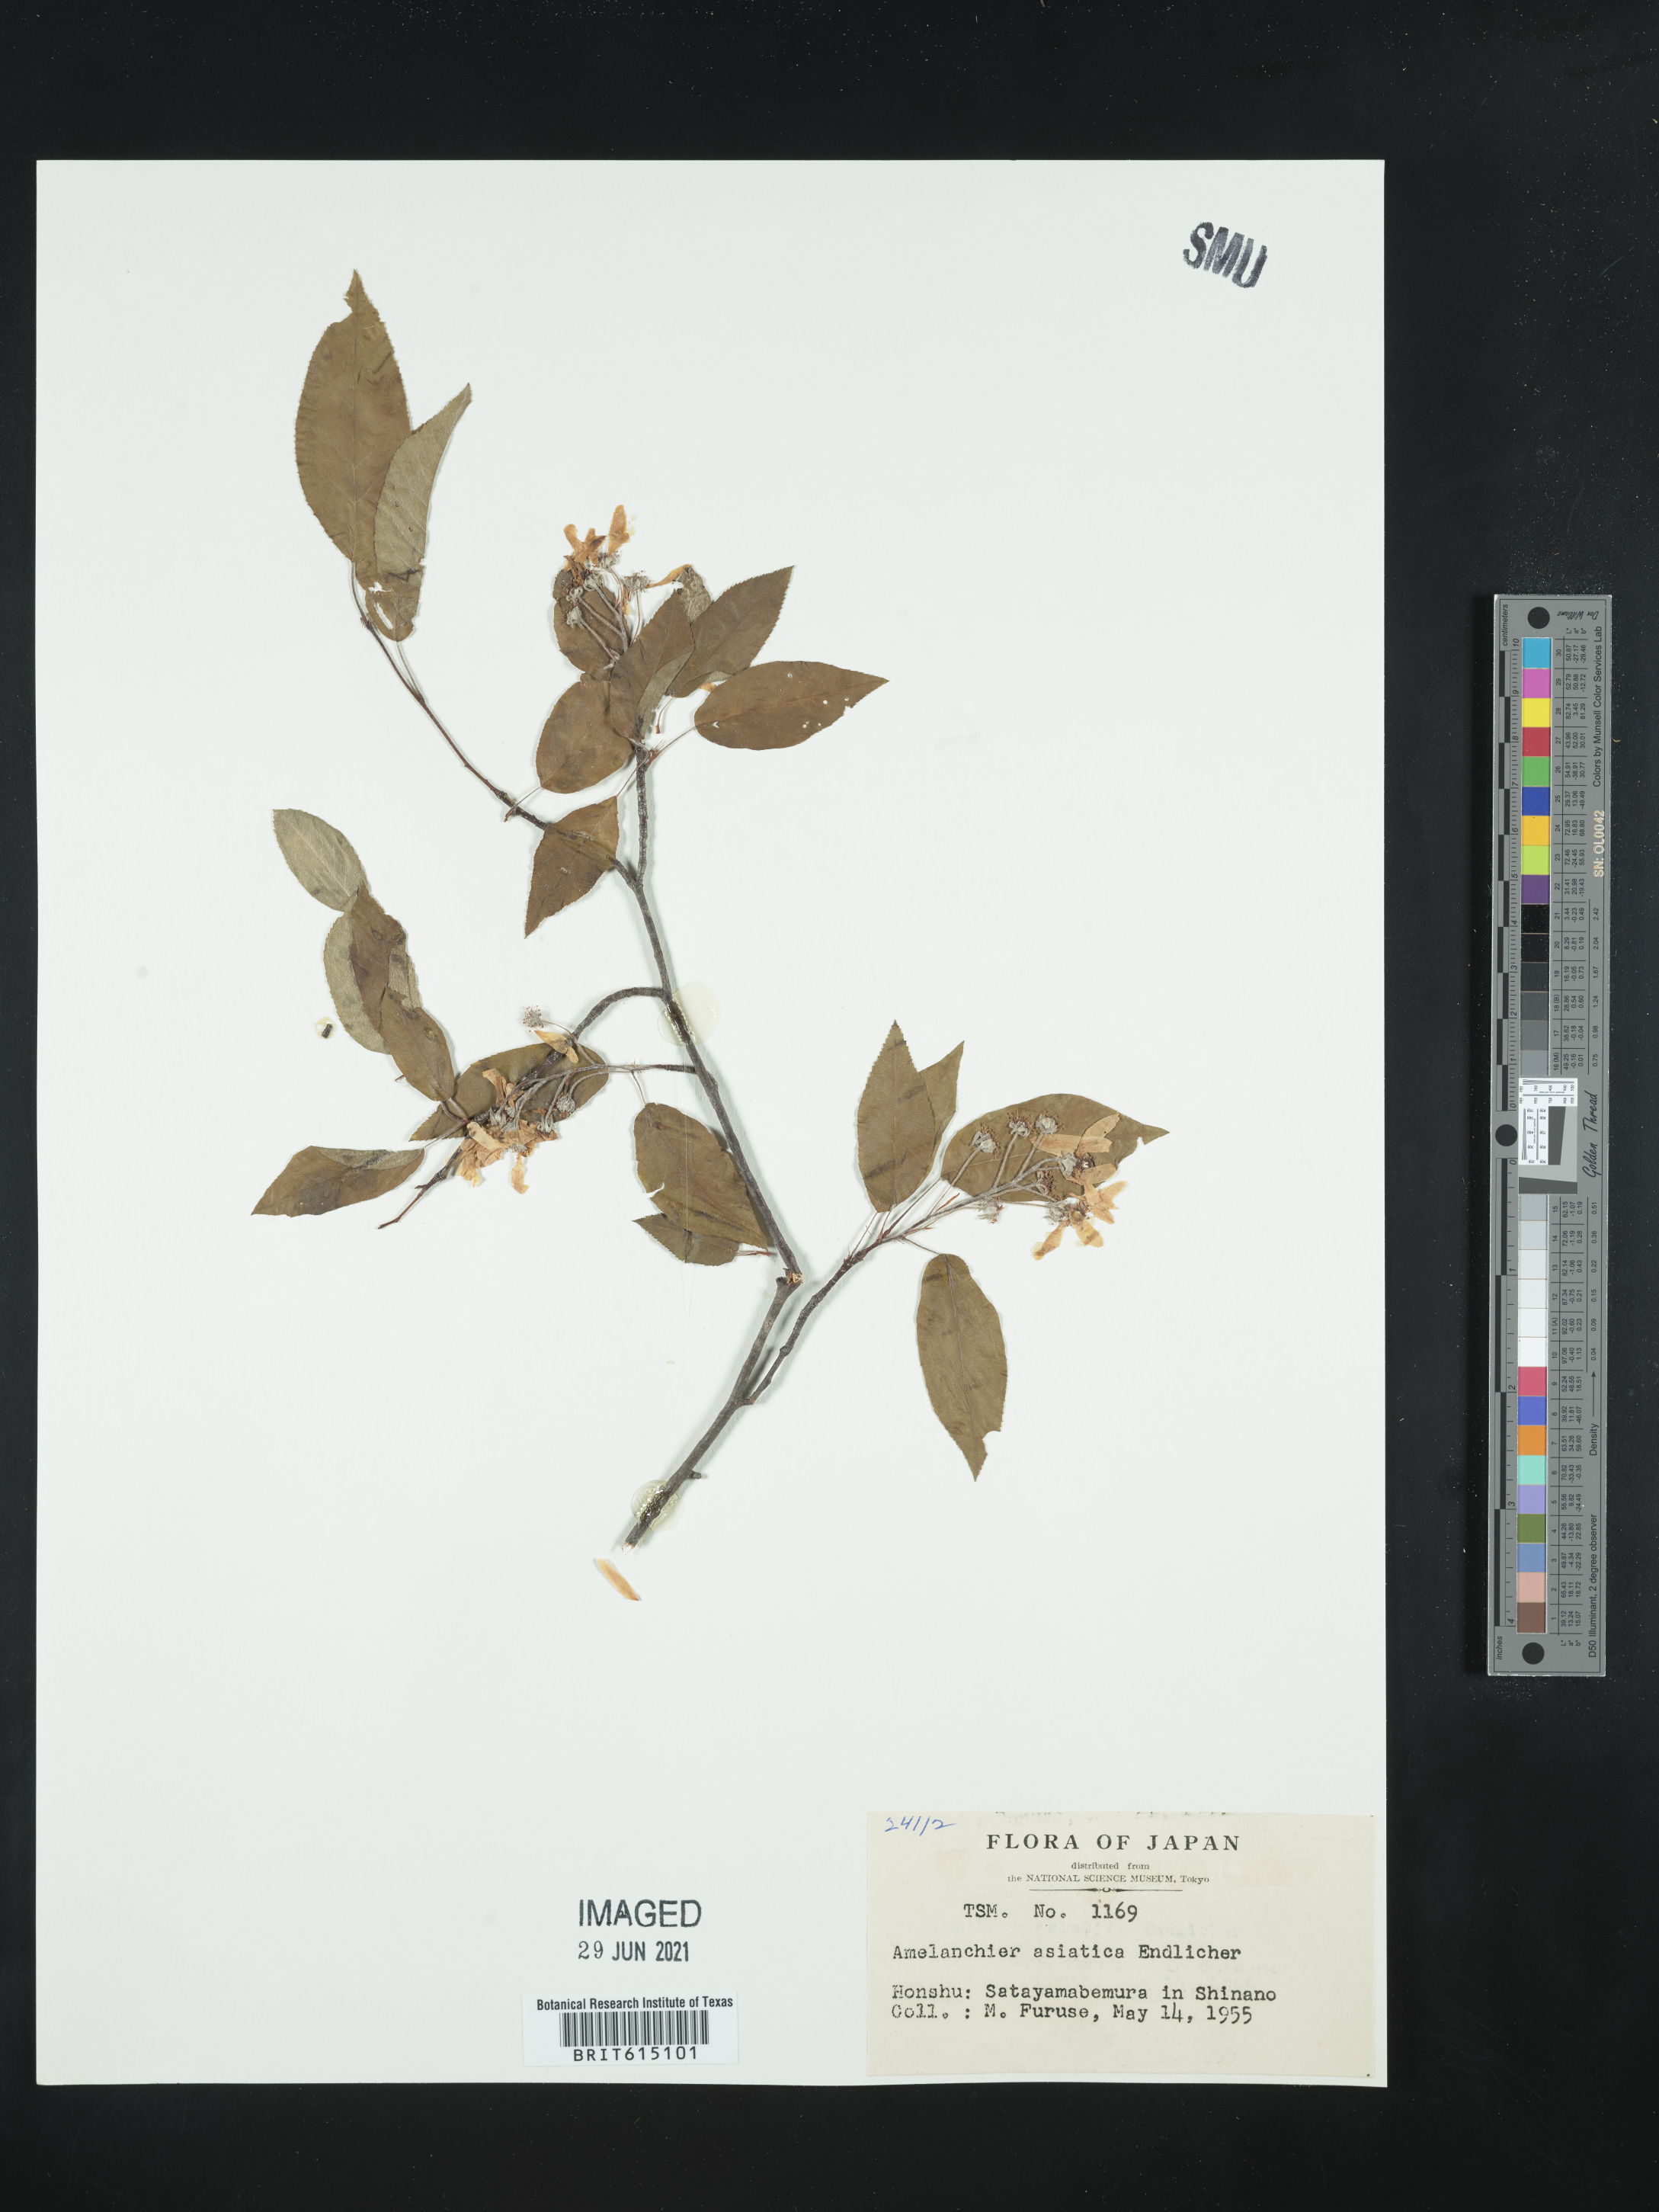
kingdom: Plantae
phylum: Tracheophyta
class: Magnoliopsida
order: Rosales
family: Rosaceae
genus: Amelanchier
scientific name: Amelanchier asiatica
